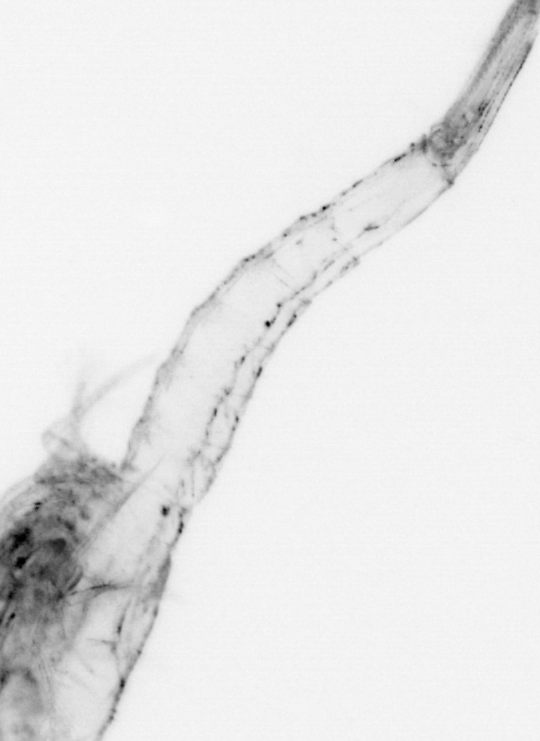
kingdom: Animalia
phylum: Arthropoda
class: Malacostraca
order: Decapoda
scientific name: Decapoda
